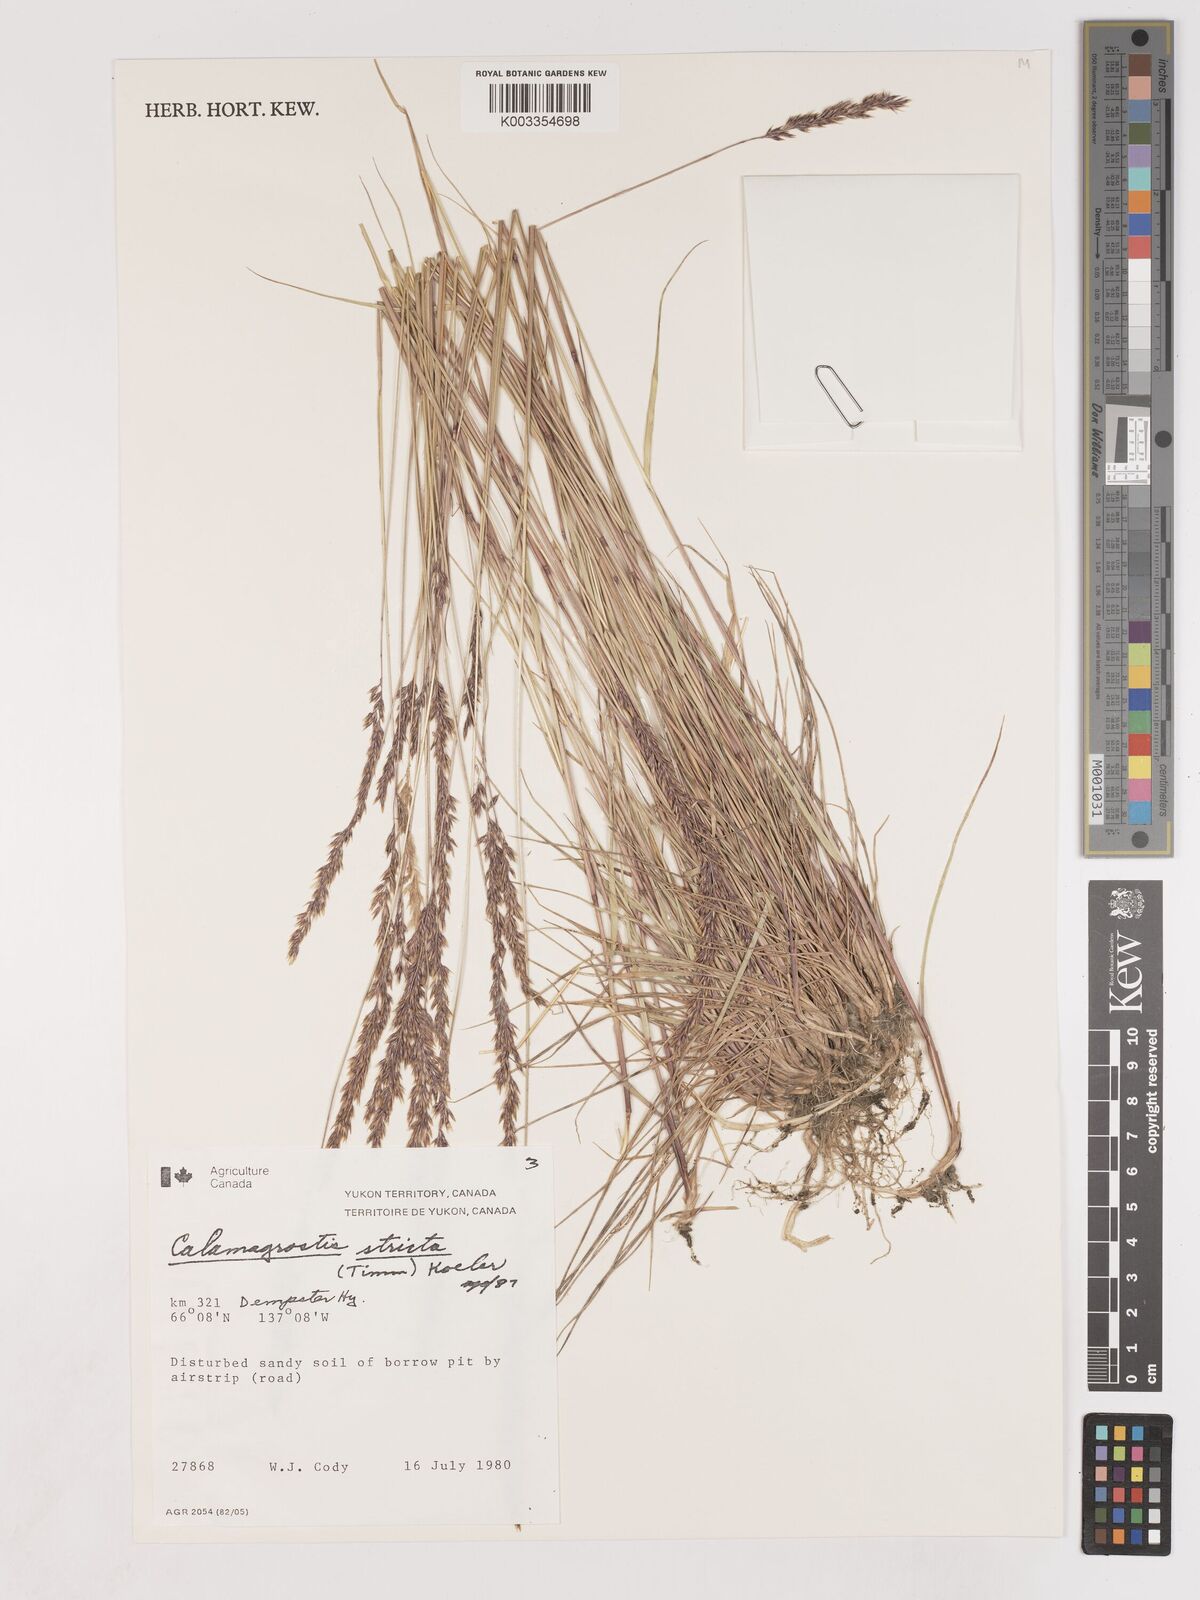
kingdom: Plantae
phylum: Tracheophyta
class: Liliopsida
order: Poales
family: Poaceae
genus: Cinnagrostis
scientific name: Cinnagrostis recta
